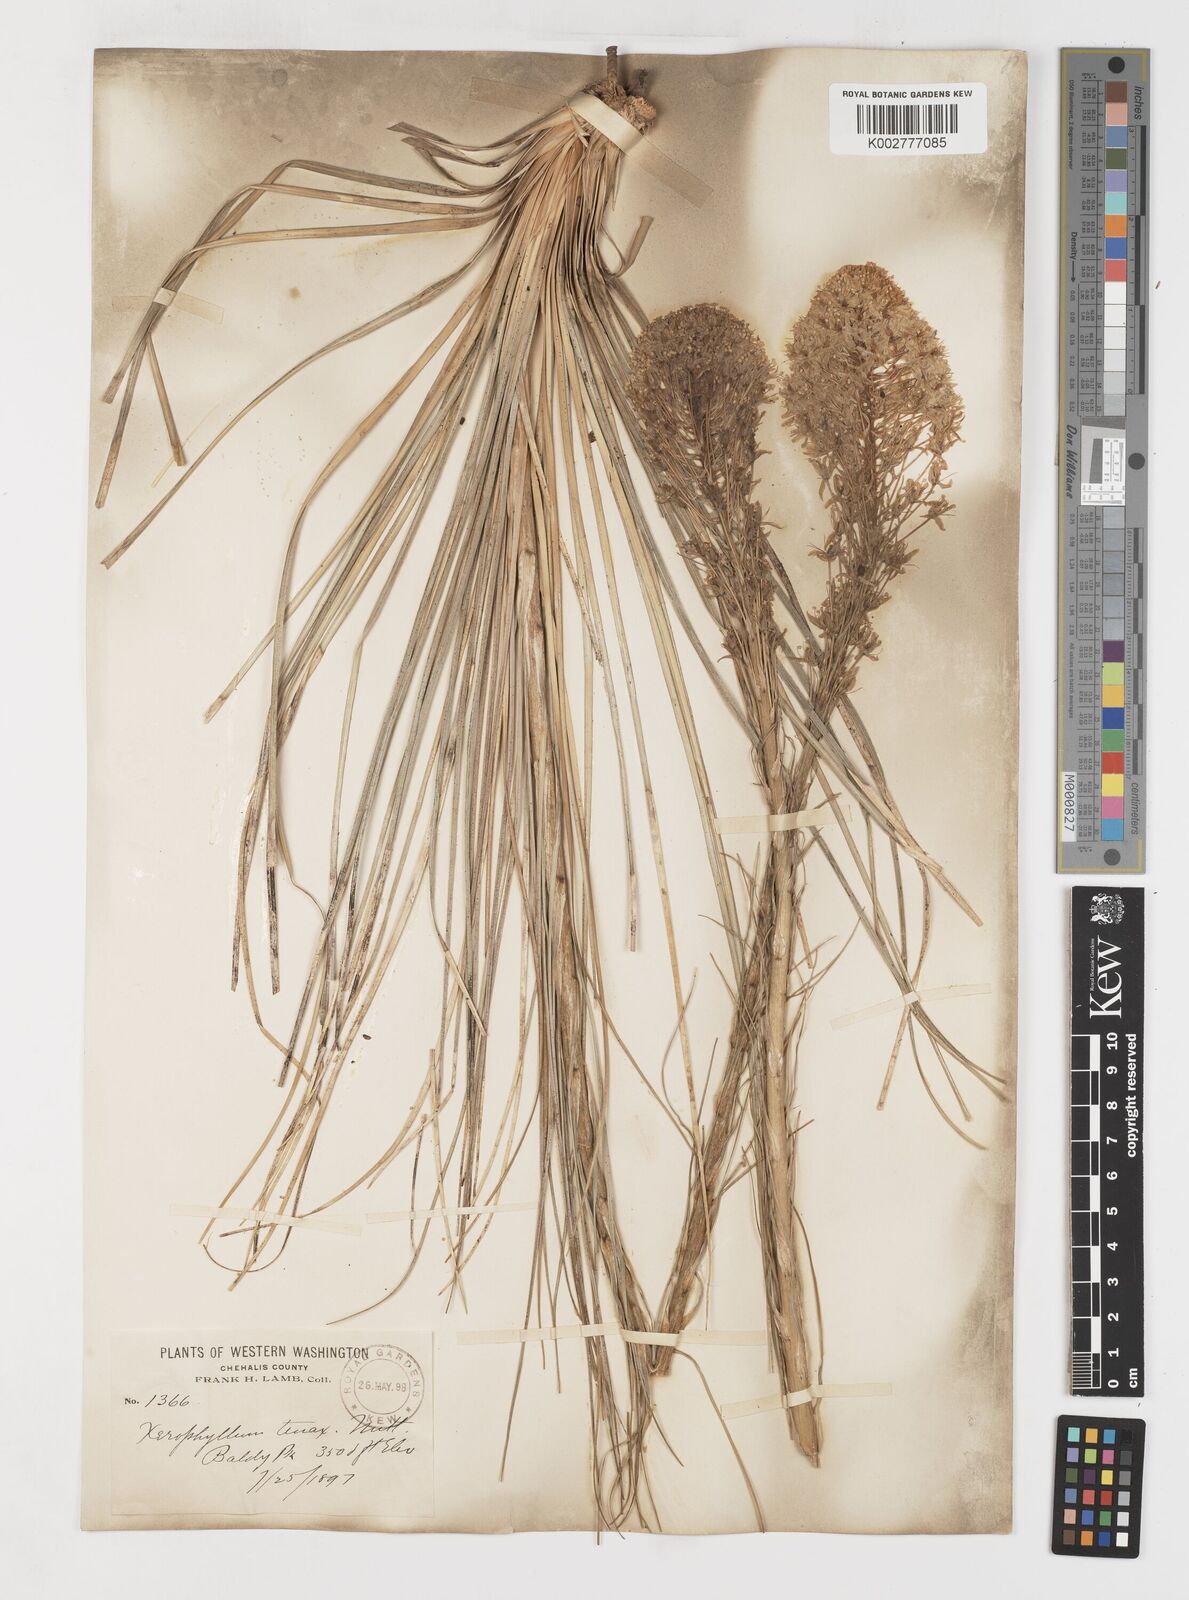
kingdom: Plantae
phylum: Tracheophyta
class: Liliopsida
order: Liliales
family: Melanthiaceae
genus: Xerophyllum
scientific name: Xerophyllum tenax
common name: Bear-grass
